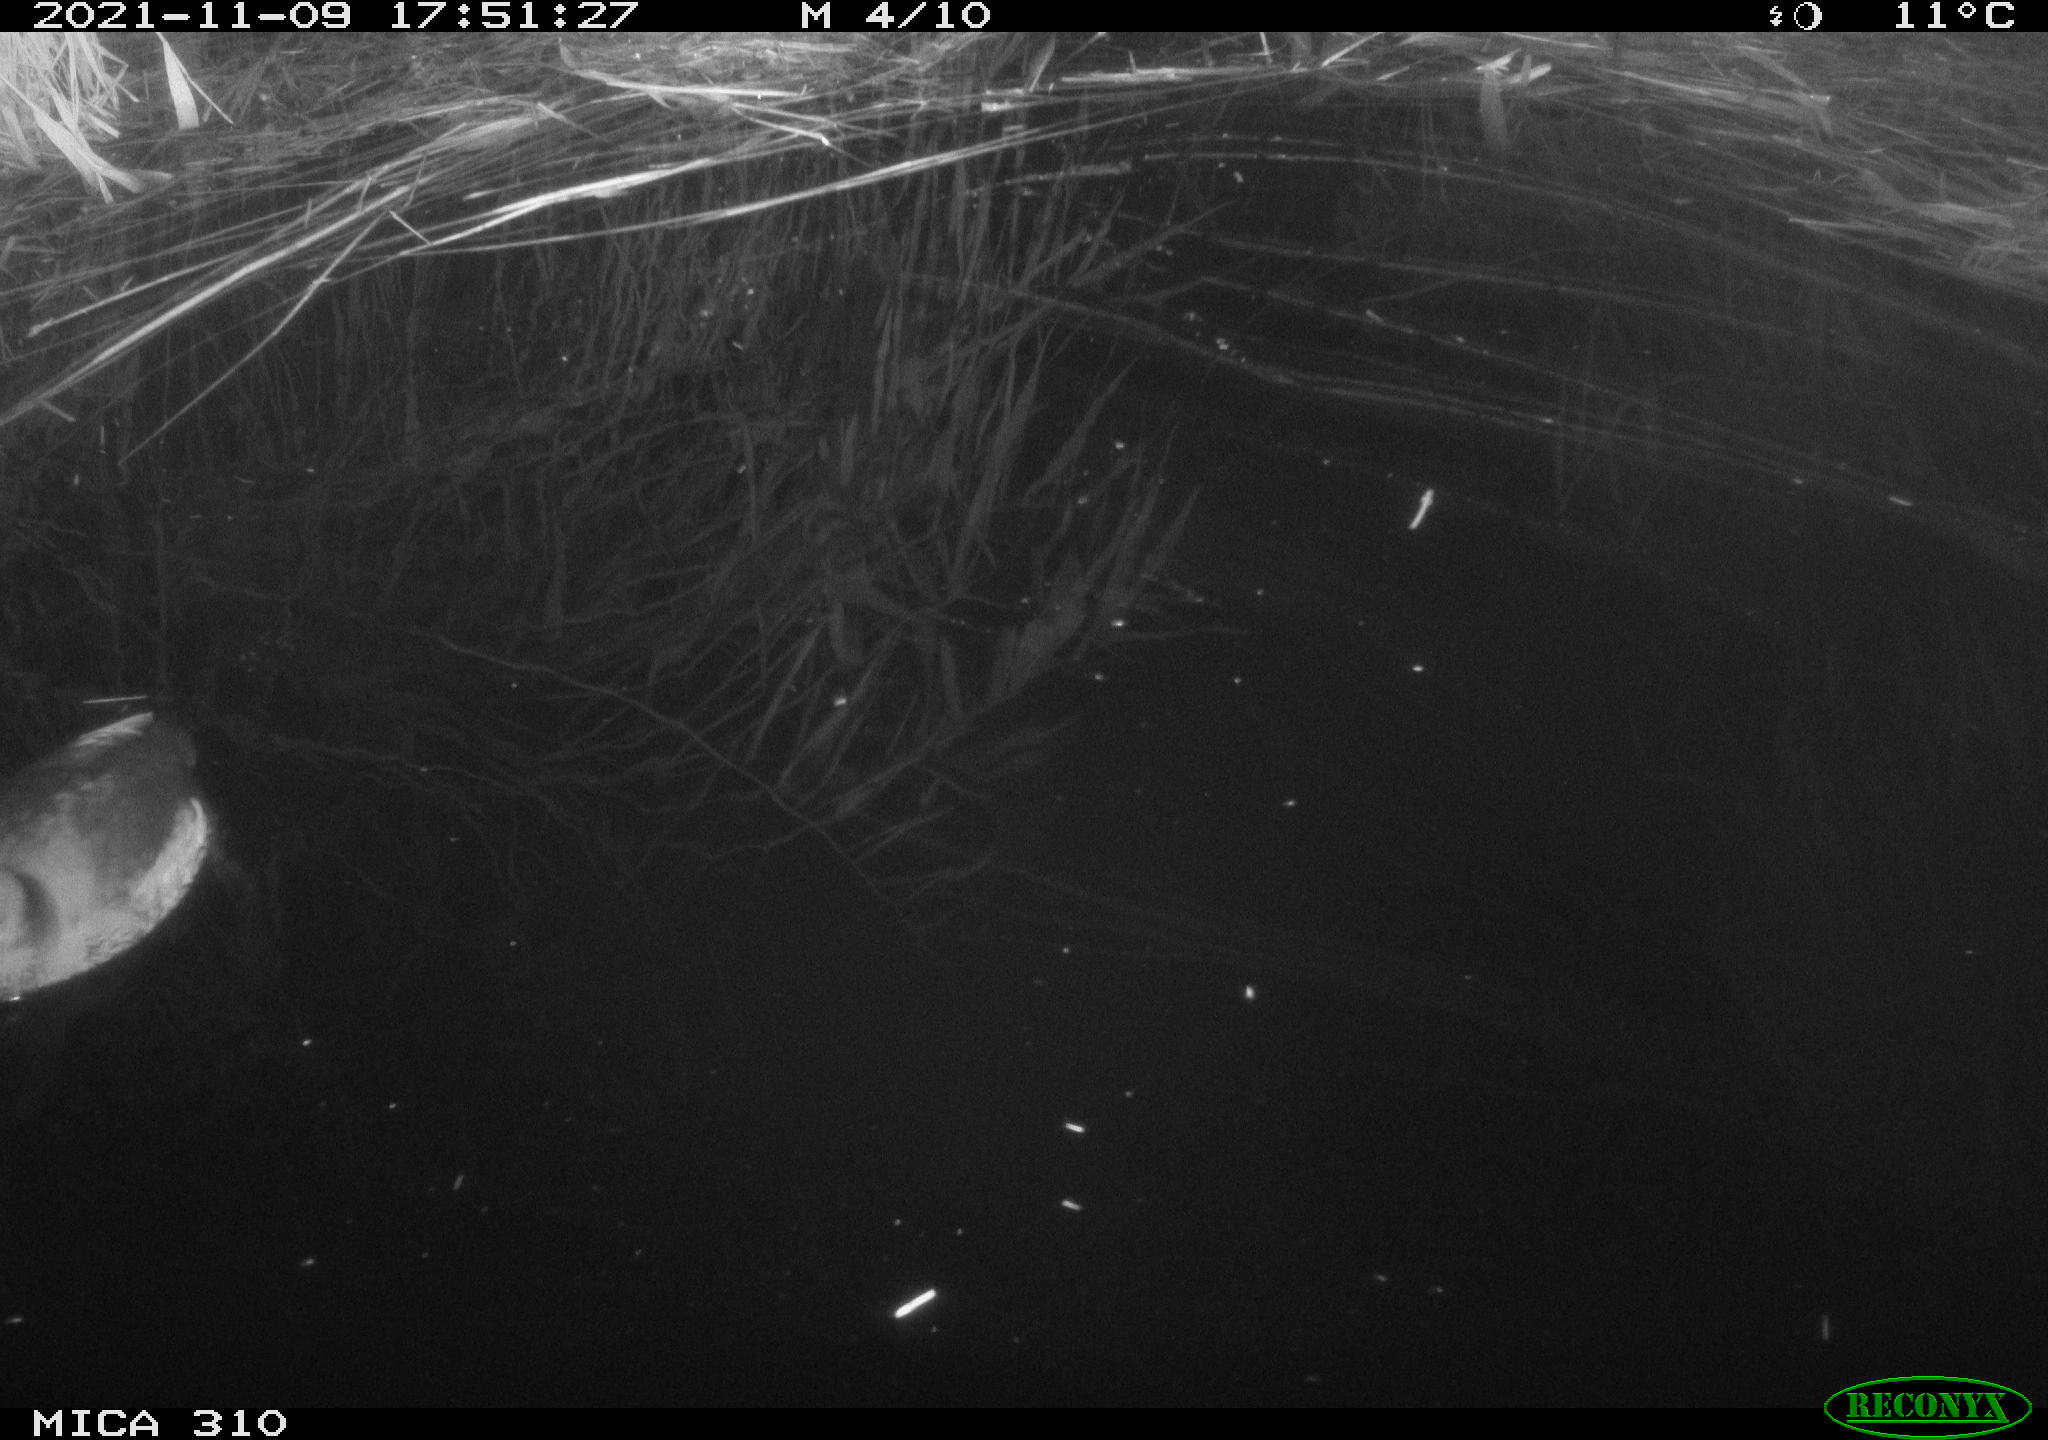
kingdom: Animalia
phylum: Chordata
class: Aves
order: Gruiformes
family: Rallidae
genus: Fulica
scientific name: Fulica atra
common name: Eurasian coot
